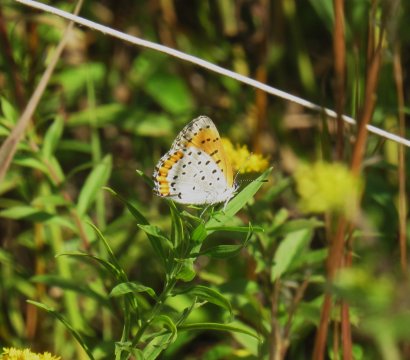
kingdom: Animalia
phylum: Arthropoda
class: Insecta
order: Lepidoptera
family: Sesiidae
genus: Sesia
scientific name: Sesia Lycaena hyllus
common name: Bronze Copper
